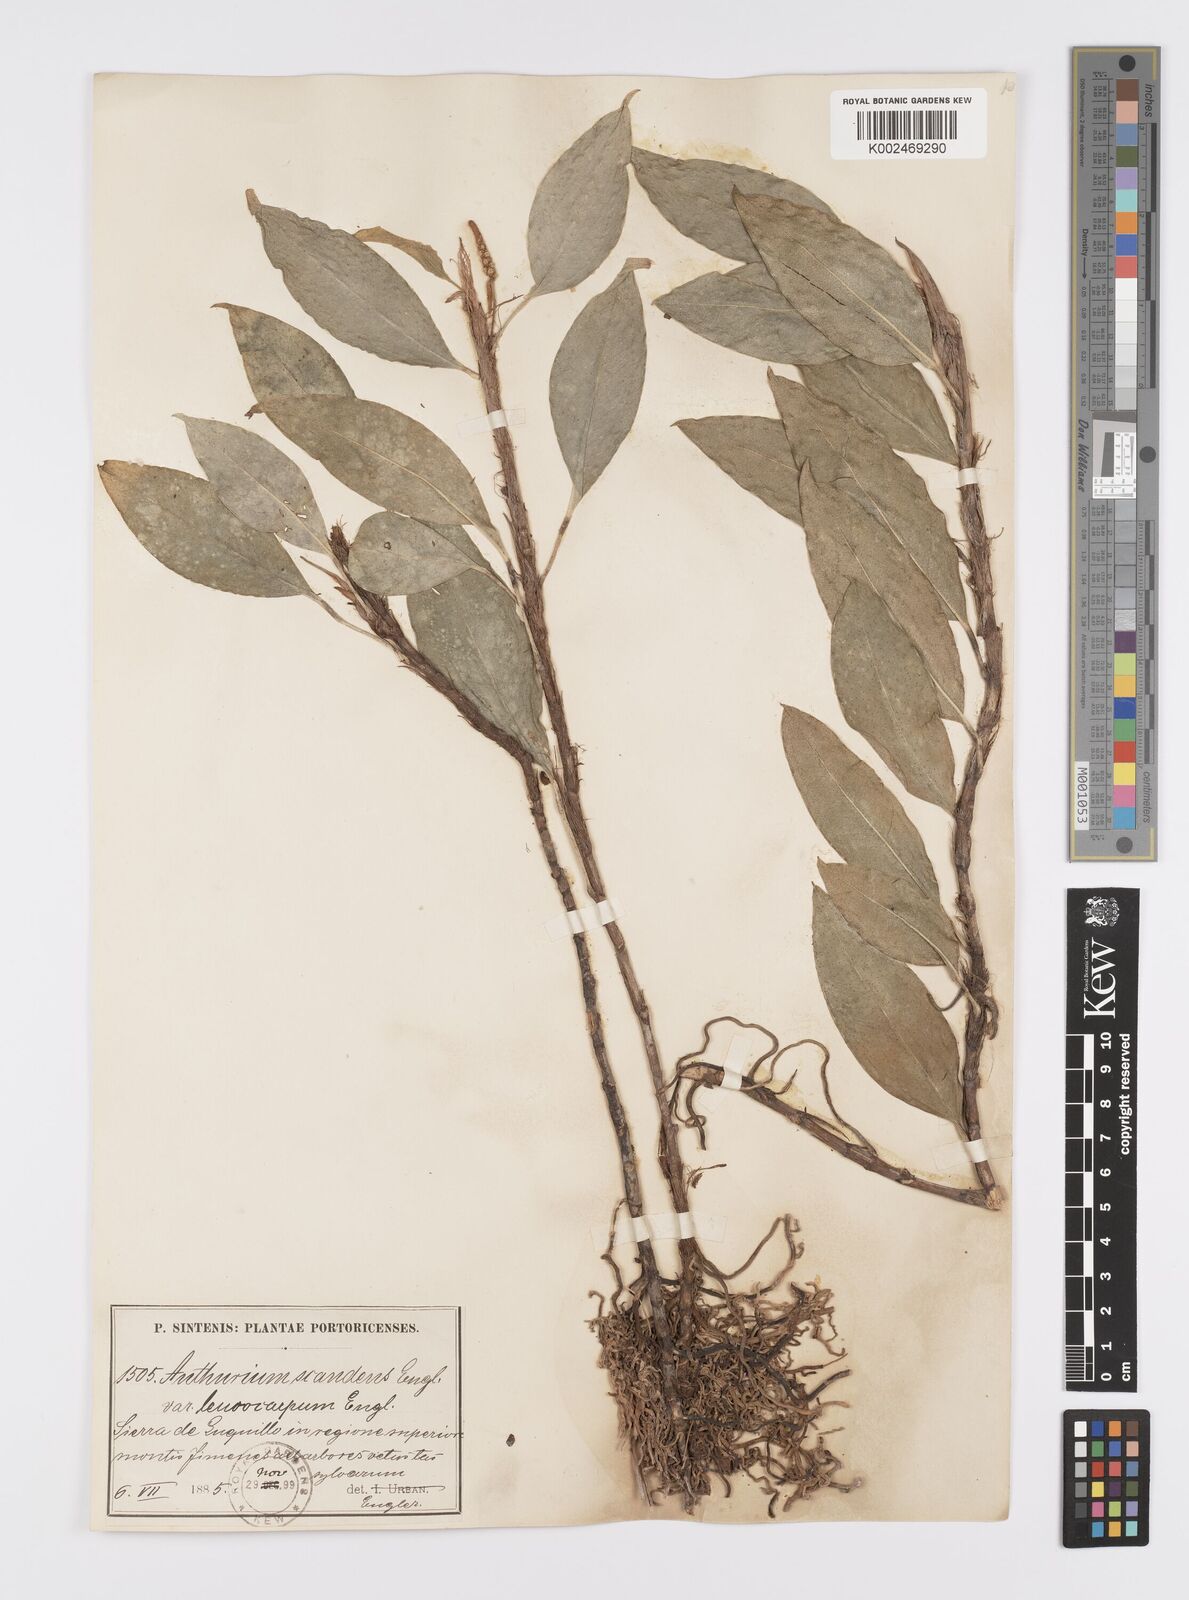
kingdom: Plantae
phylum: Tracheophyta
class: Liliopsida
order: Alismatales
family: Araceae
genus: Anthurium
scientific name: Anthurium scandens
